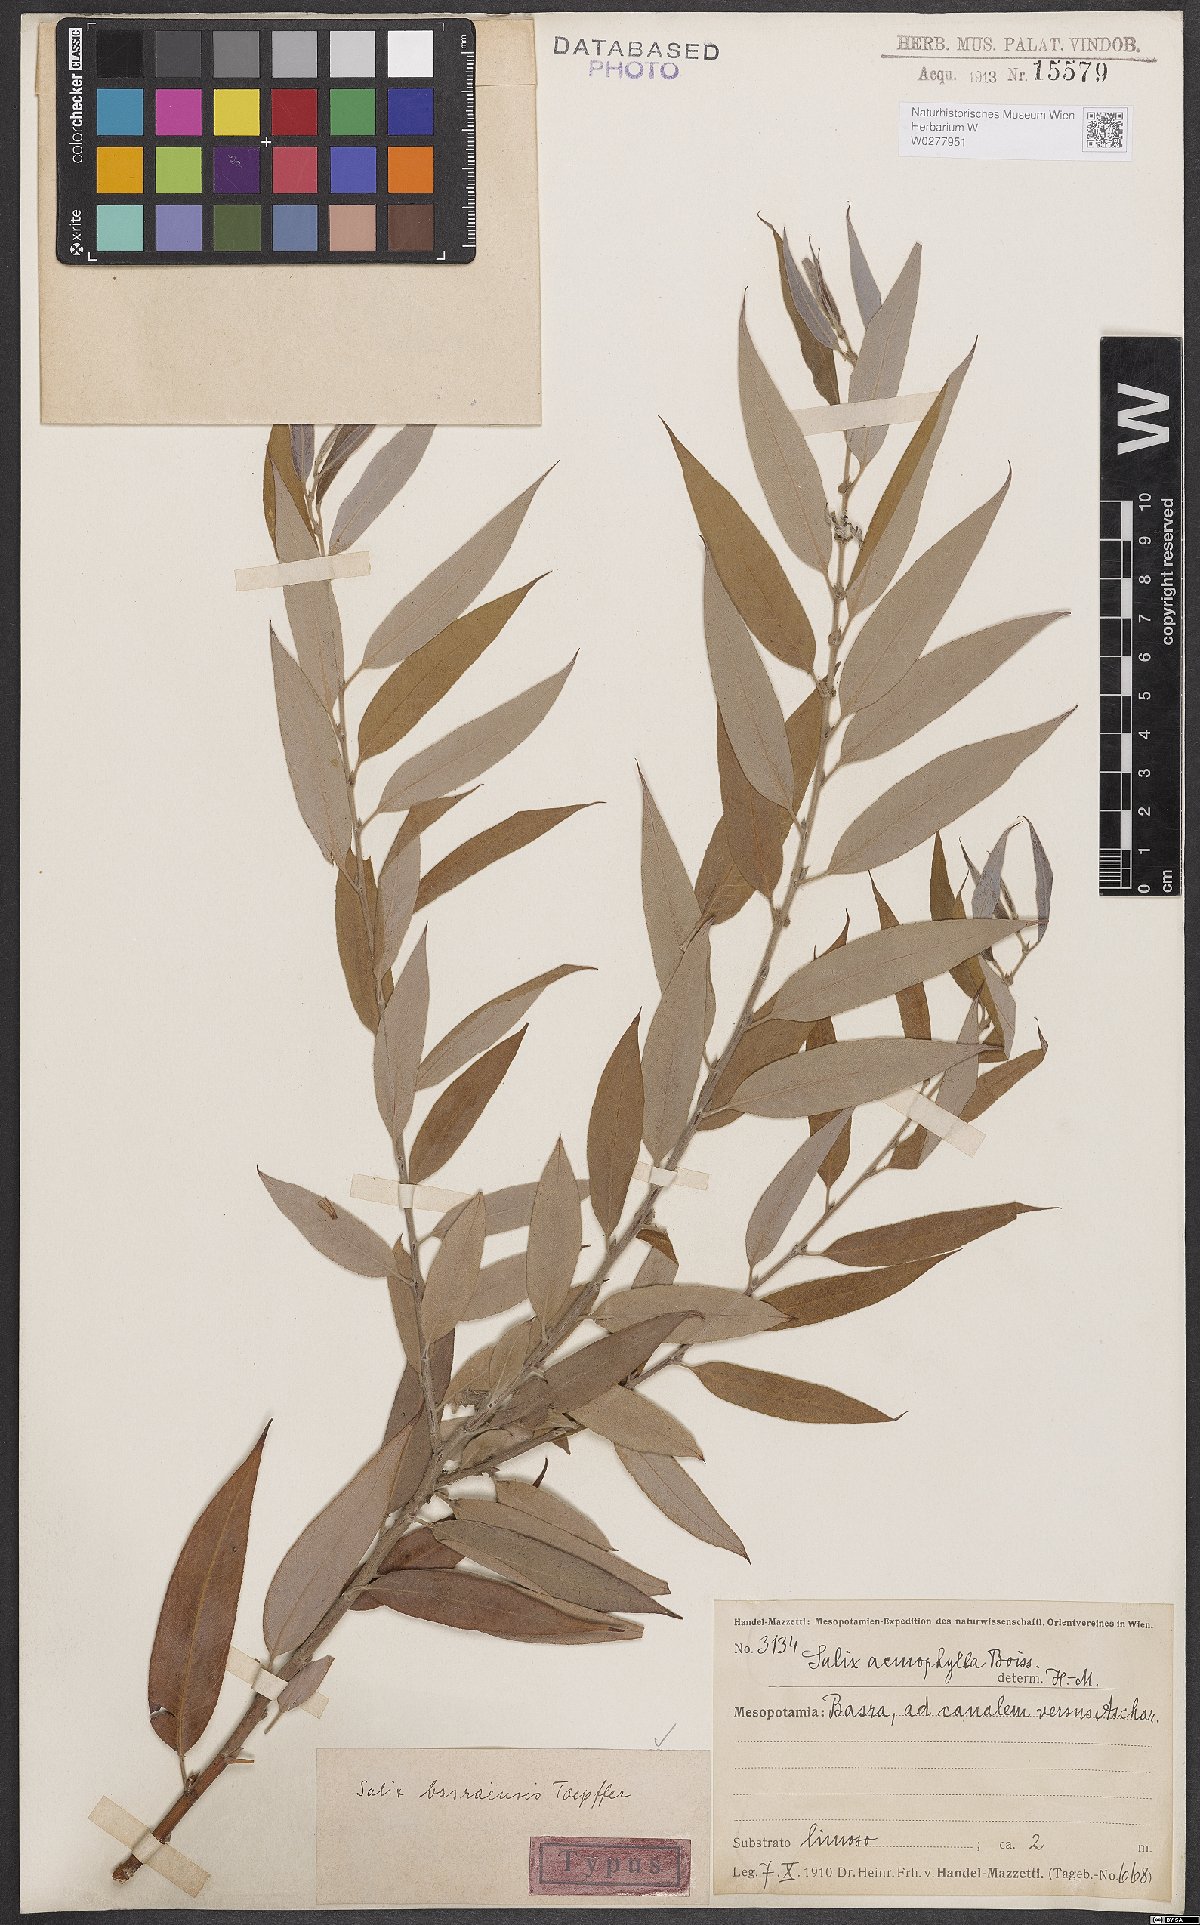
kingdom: Plantae
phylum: Tracheophyta
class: Magnoliopsida
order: Malpighiales
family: Salicaceae
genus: Salix
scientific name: Salix acmophylla
